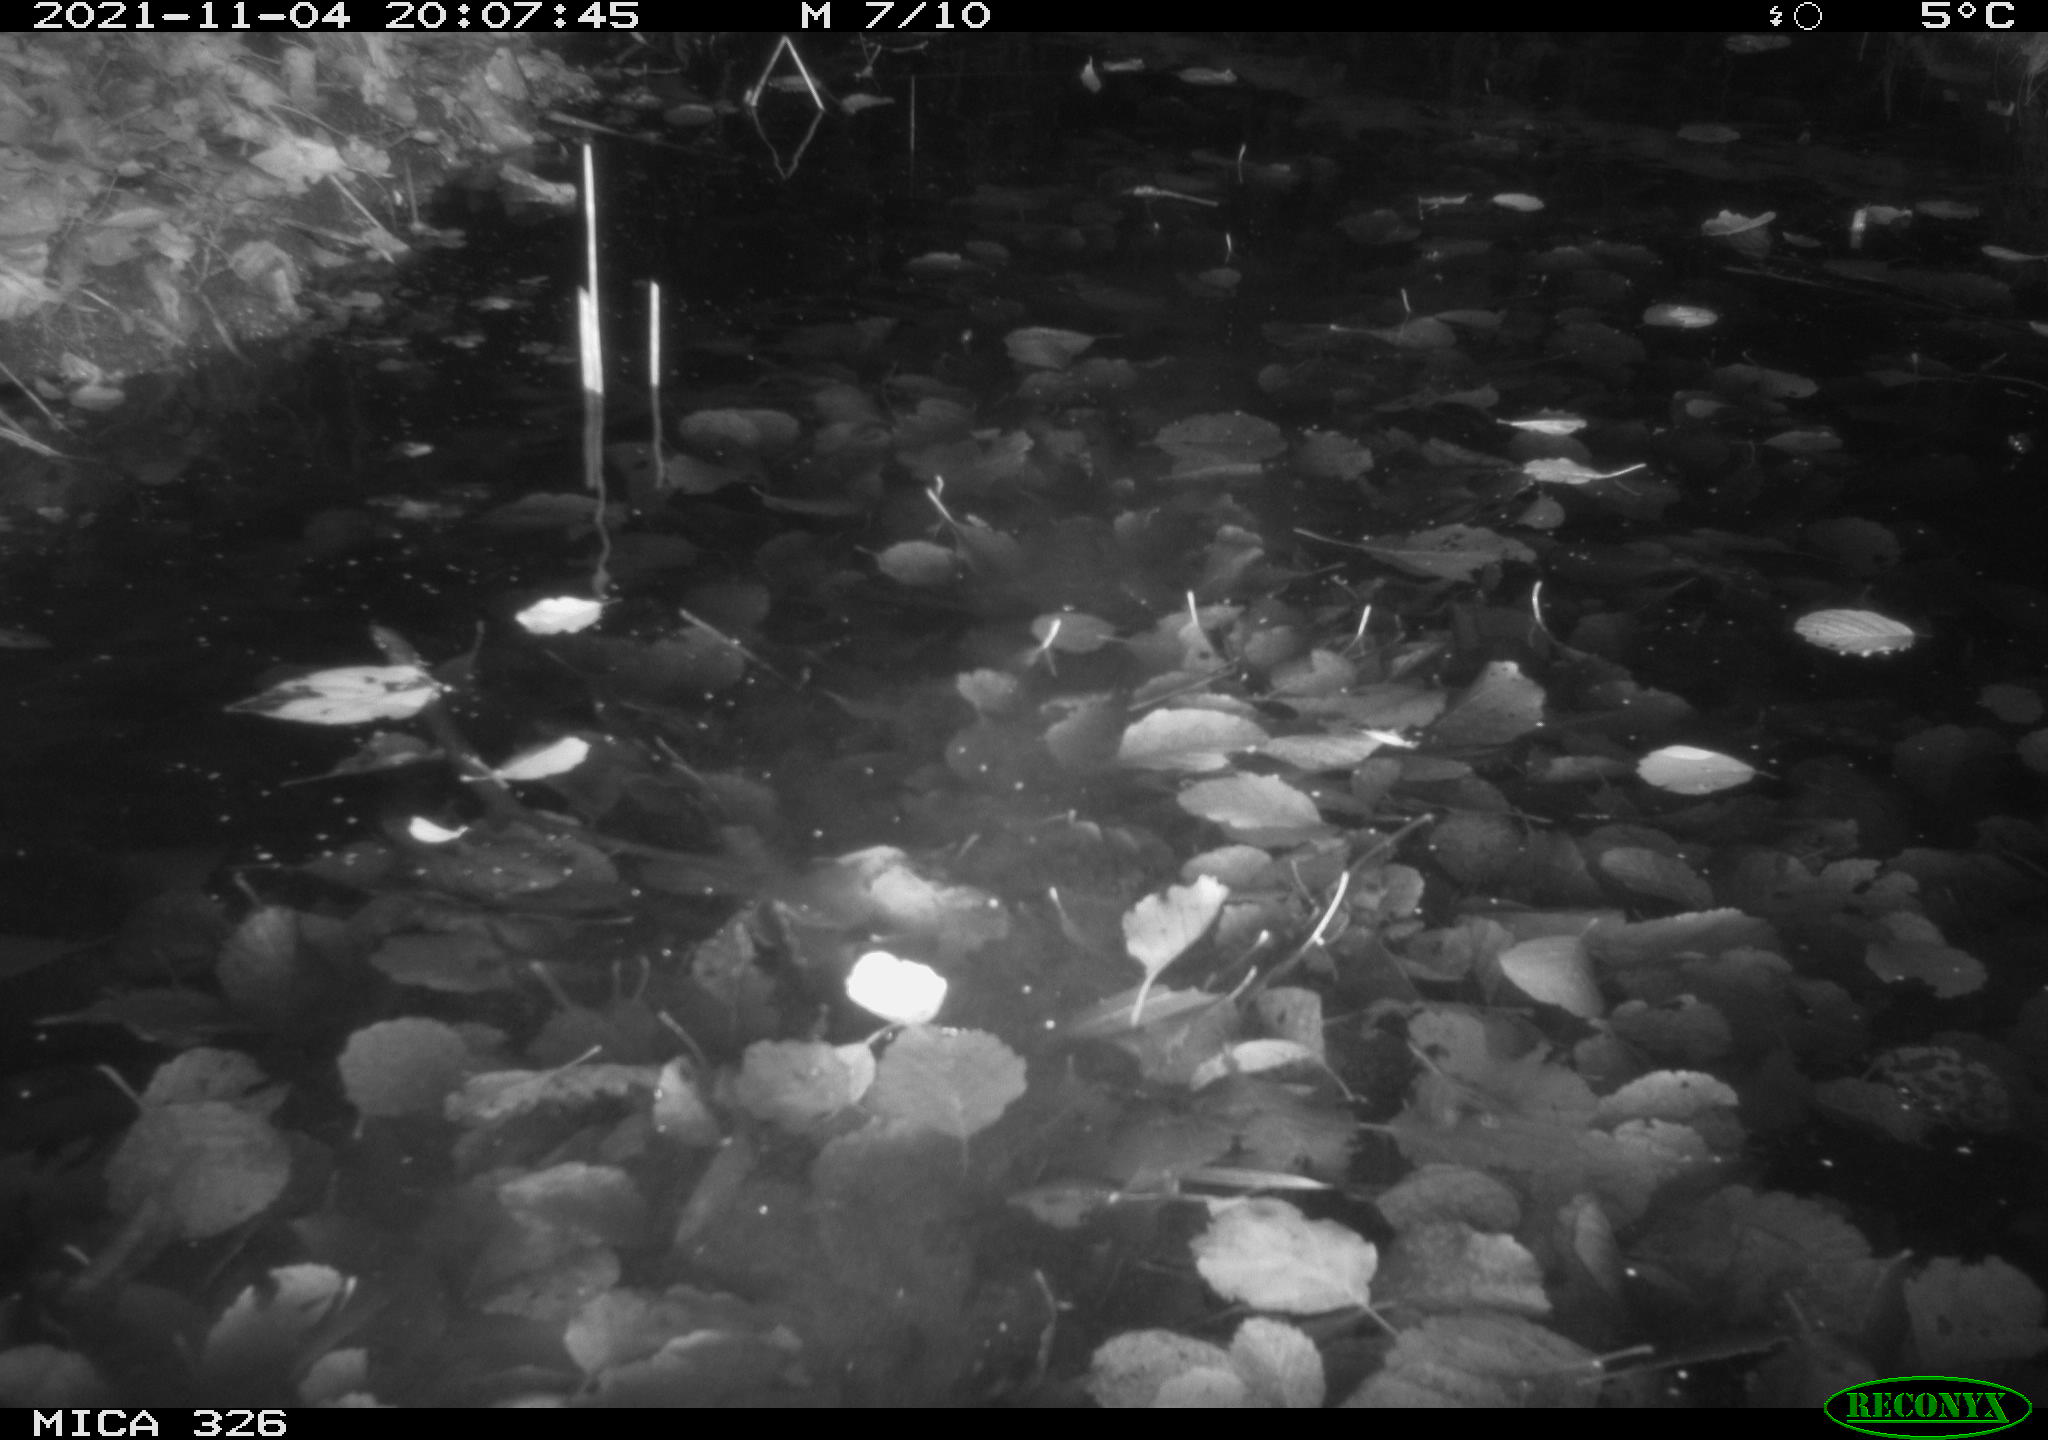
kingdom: Animalia
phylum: Chordata
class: Mammalia
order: Rodentia
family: Myocastoridae
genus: Myocastor
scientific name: Myocastor coypus
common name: Coypu
